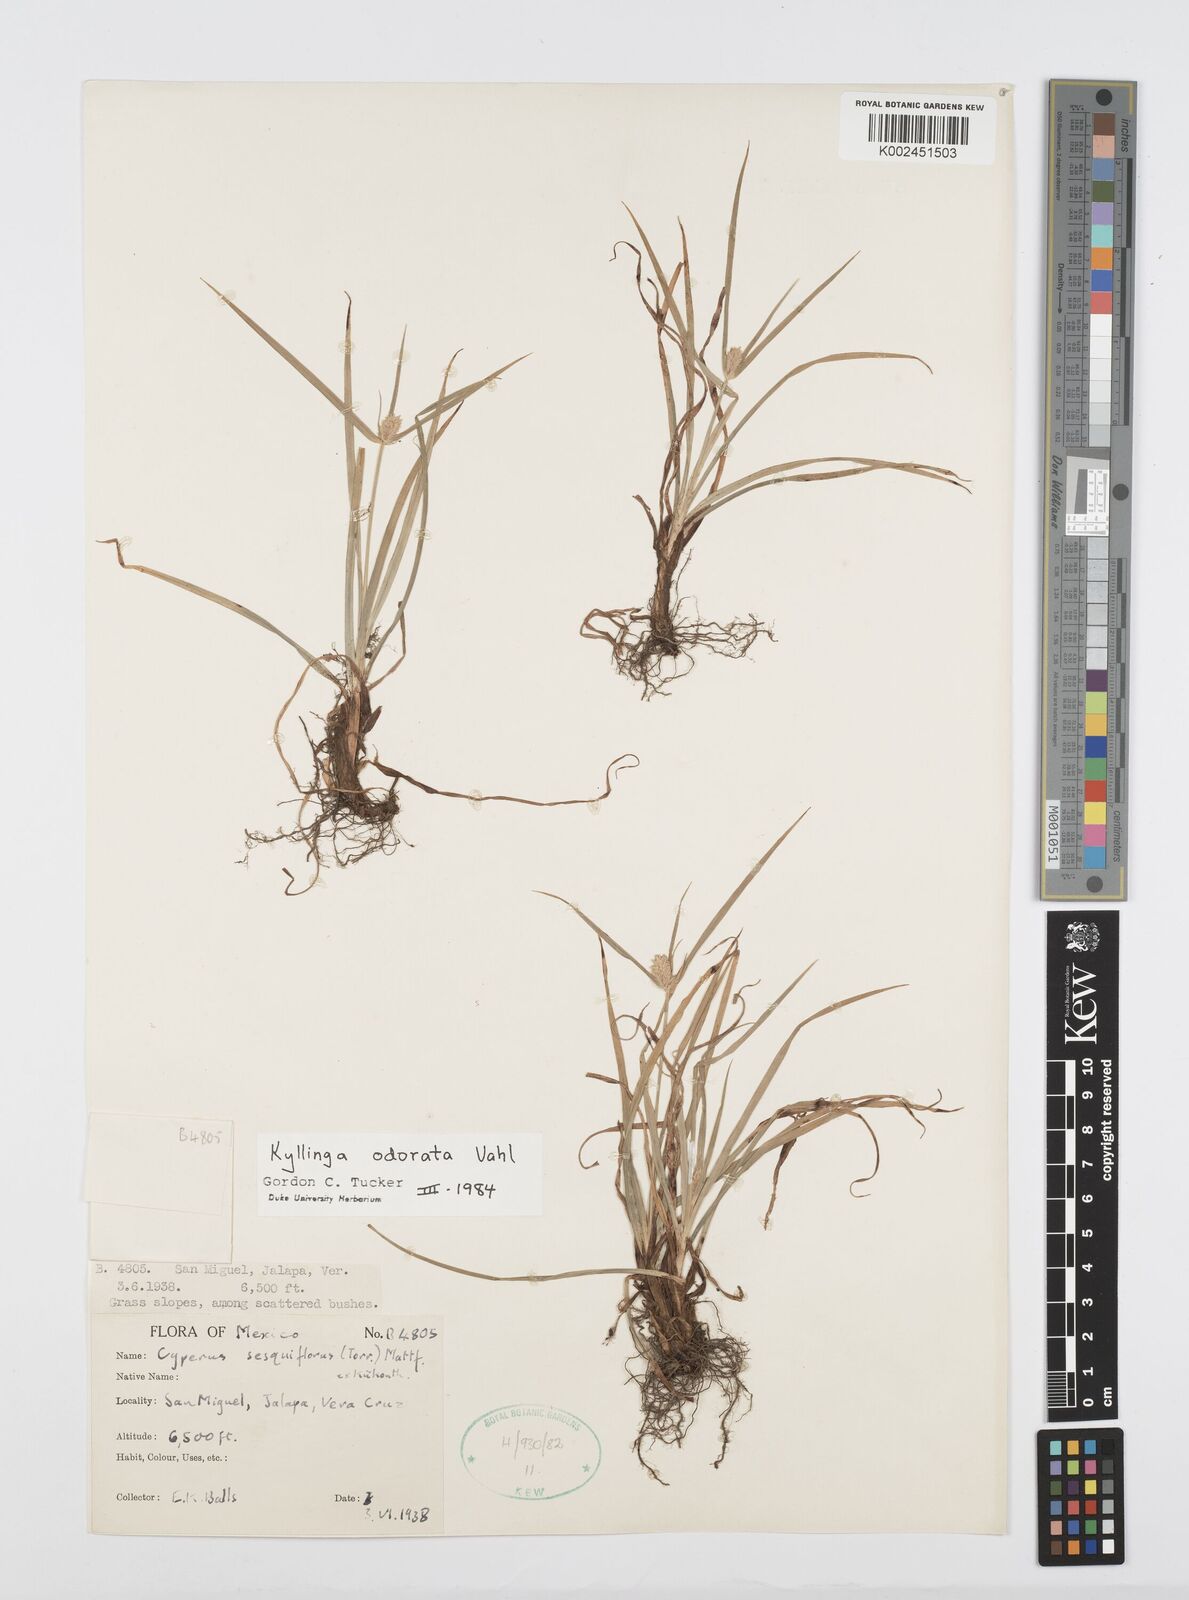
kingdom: Plantae
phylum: Tracheophyta
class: Liliopsida
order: Poales
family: Cyperaceae
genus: Cyperus
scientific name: Cyperus
